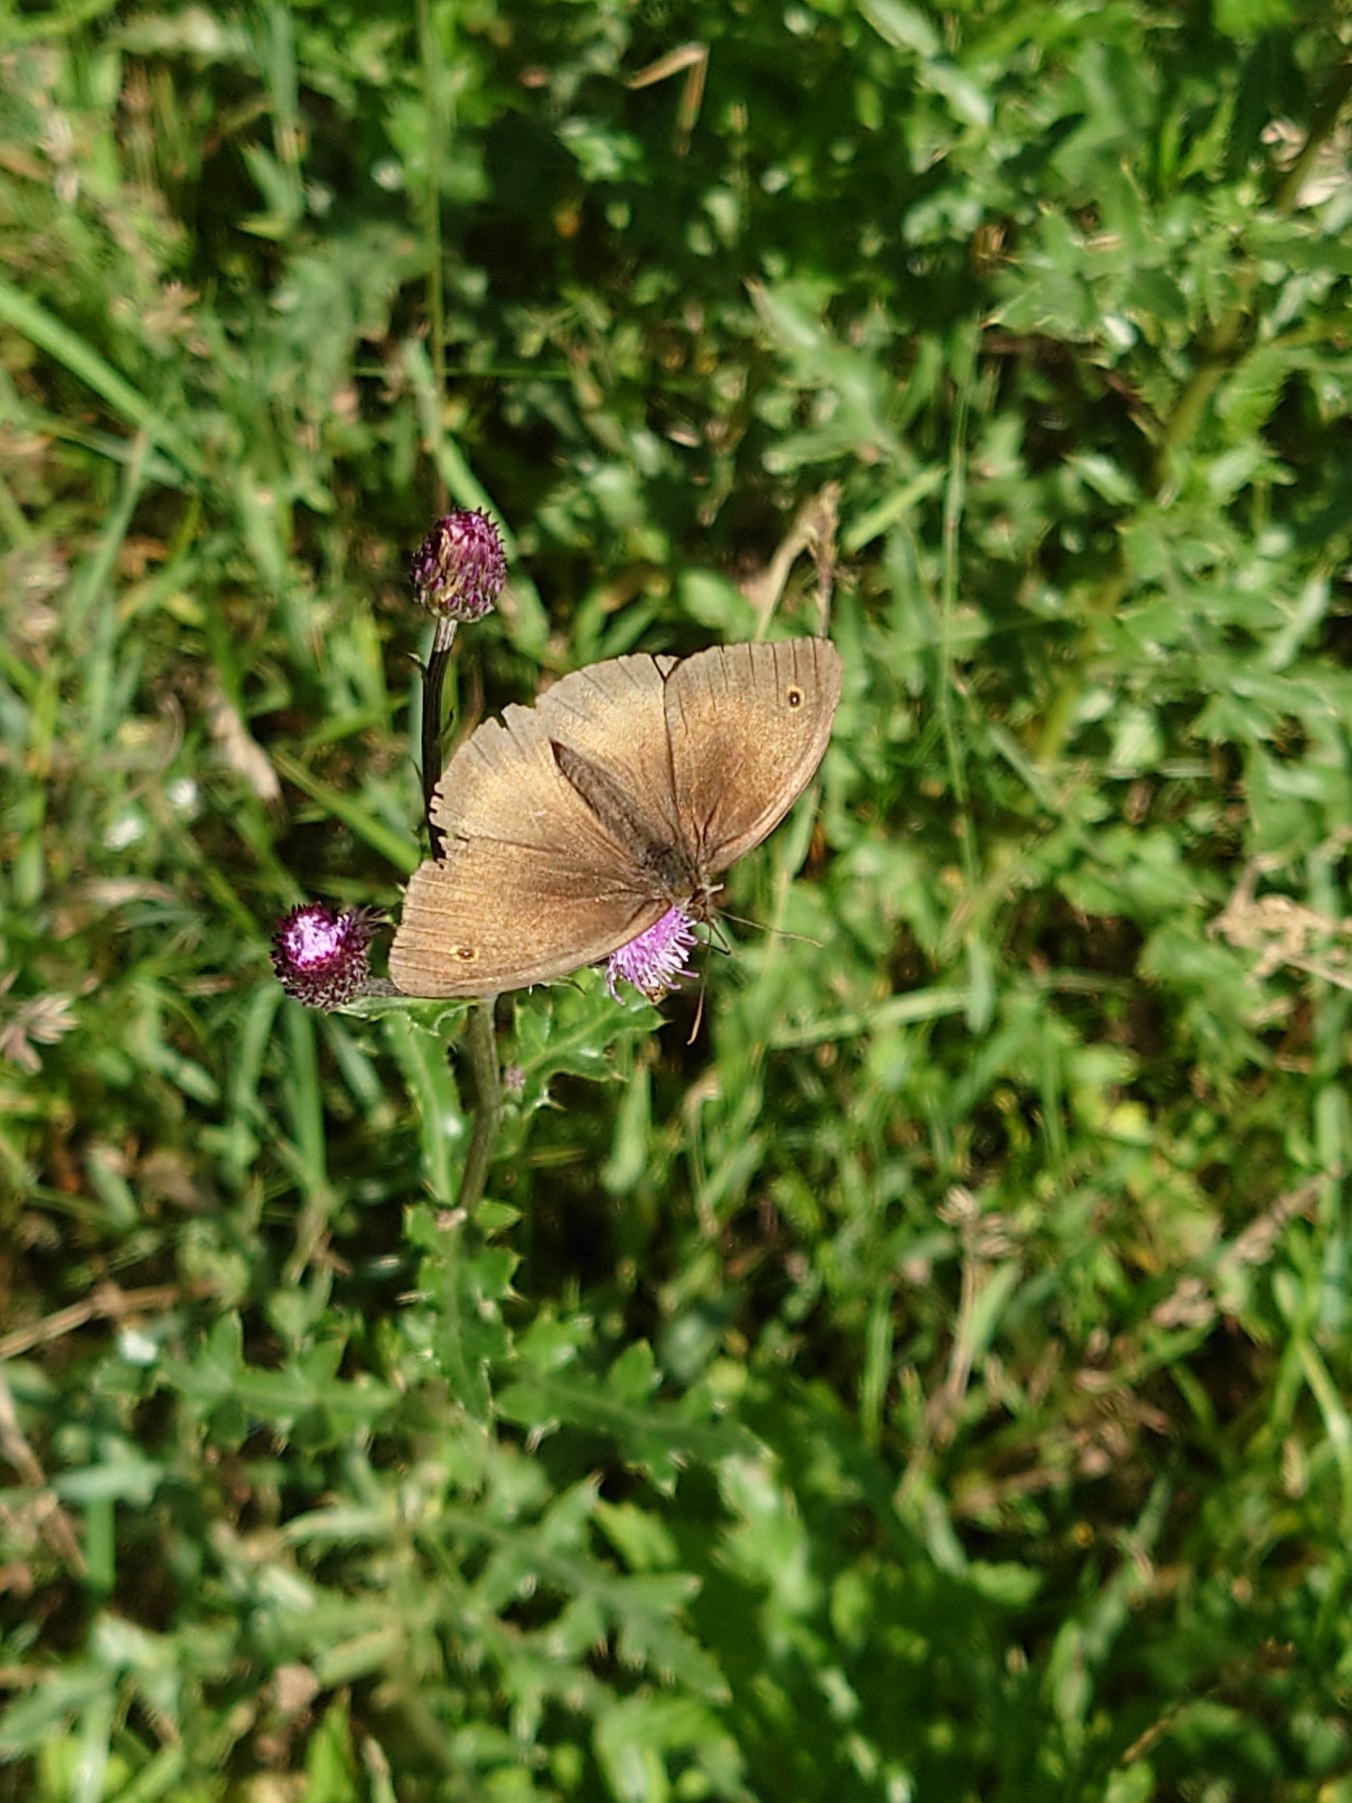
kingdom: Animalia
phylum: Arthropoda
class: Insecta
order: Lepidoptera
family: Nymphalidae
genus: Maniola
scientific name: Maniola jurtina
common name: Græsrandøje
